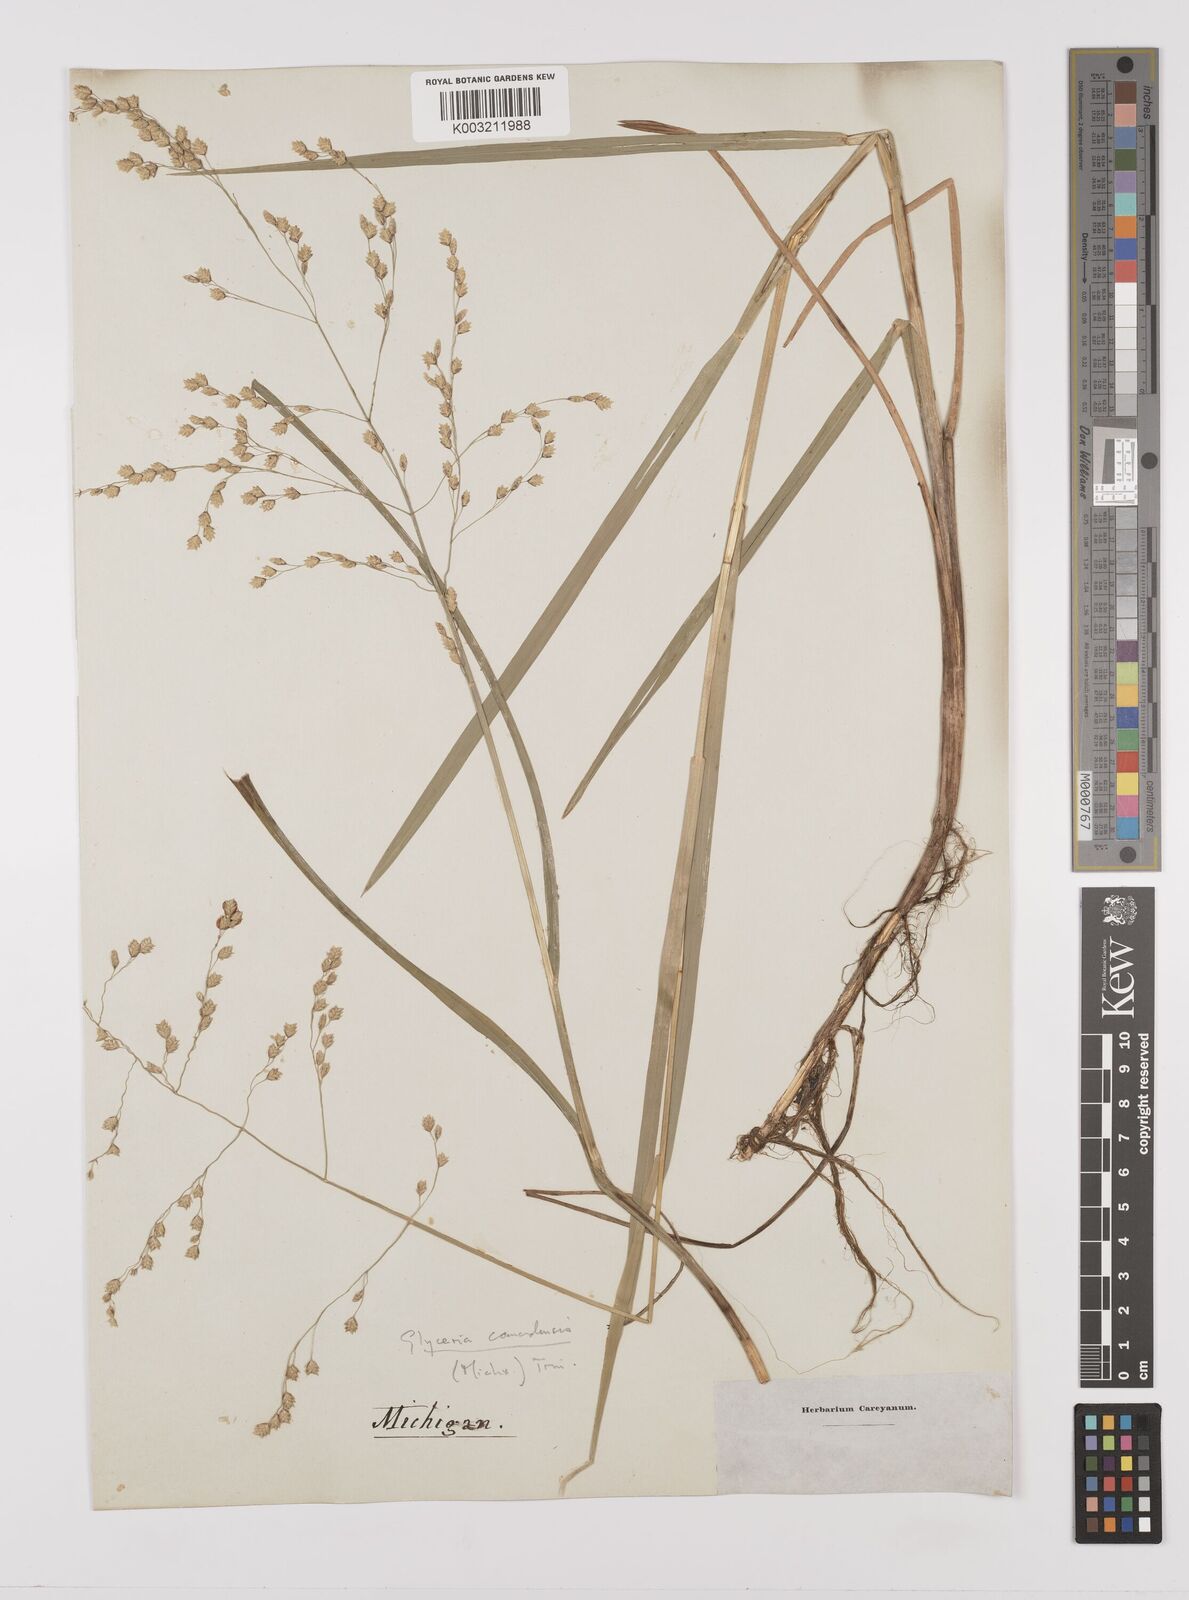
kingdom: Plantae
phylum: Tracheophyta
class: Liliopsida
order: Poales
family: Poaceae
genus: Glyceria
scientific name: Glyceria canadensis
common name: Canada mannagrass
